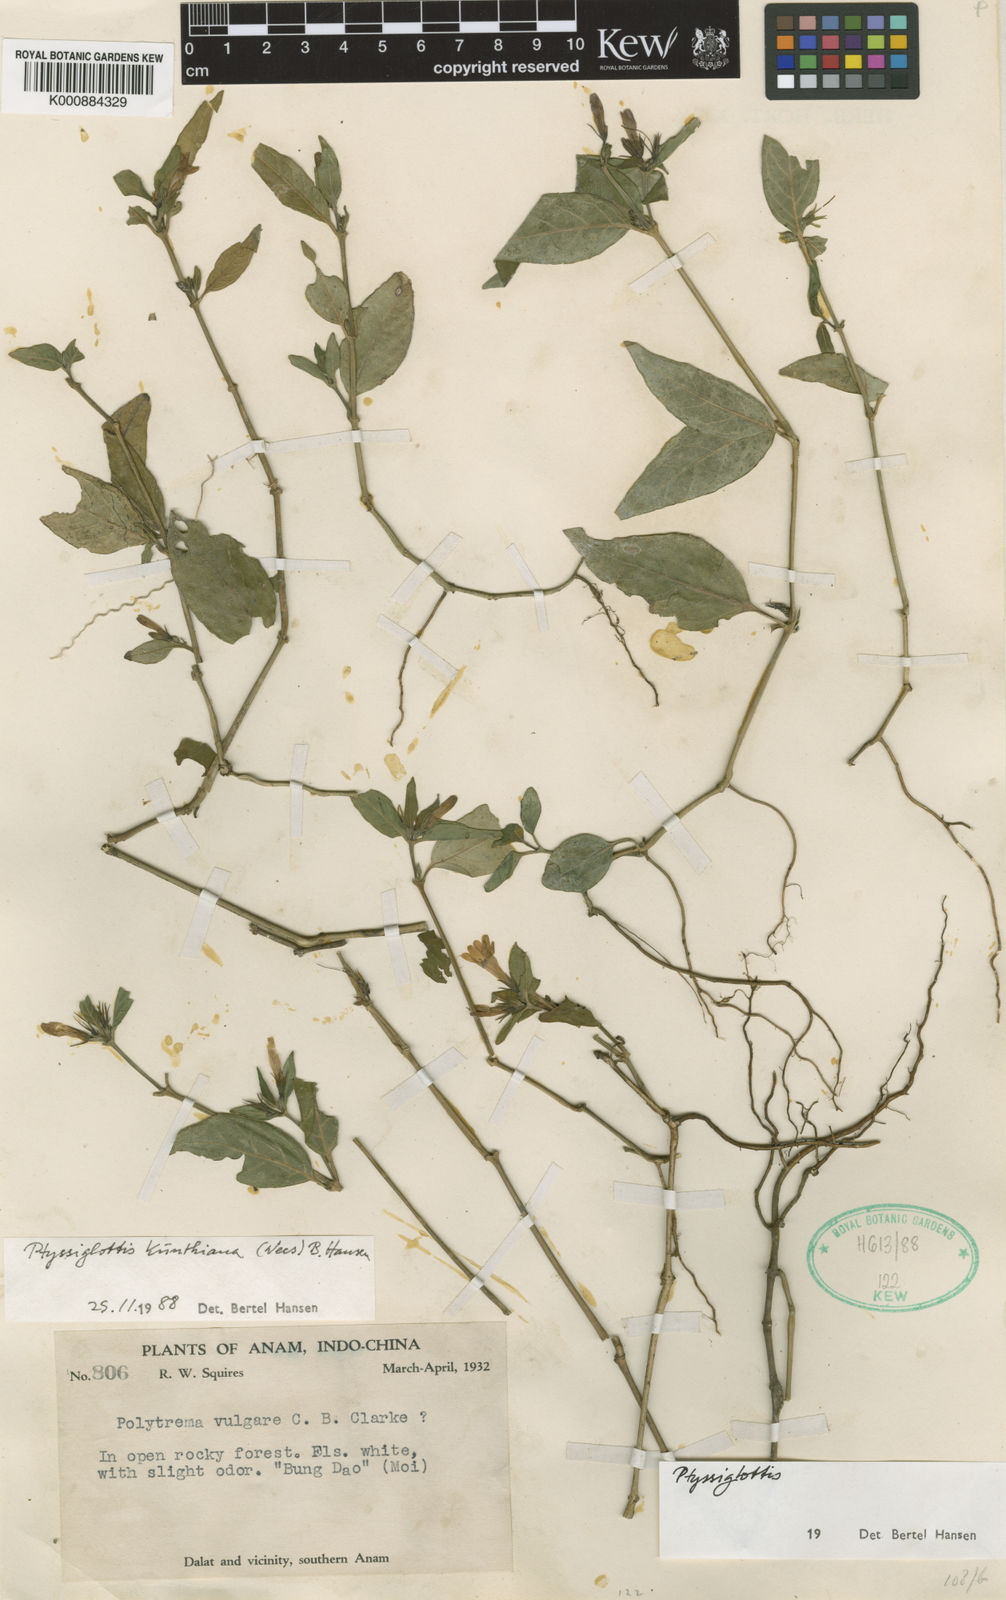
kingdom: Plantae
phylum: Tracheophyta
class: Magnoliopsida
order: Lamiales
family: Acanthaceae
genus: Ptyssiglottis
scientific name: Ptyssiglottis kunthiana
